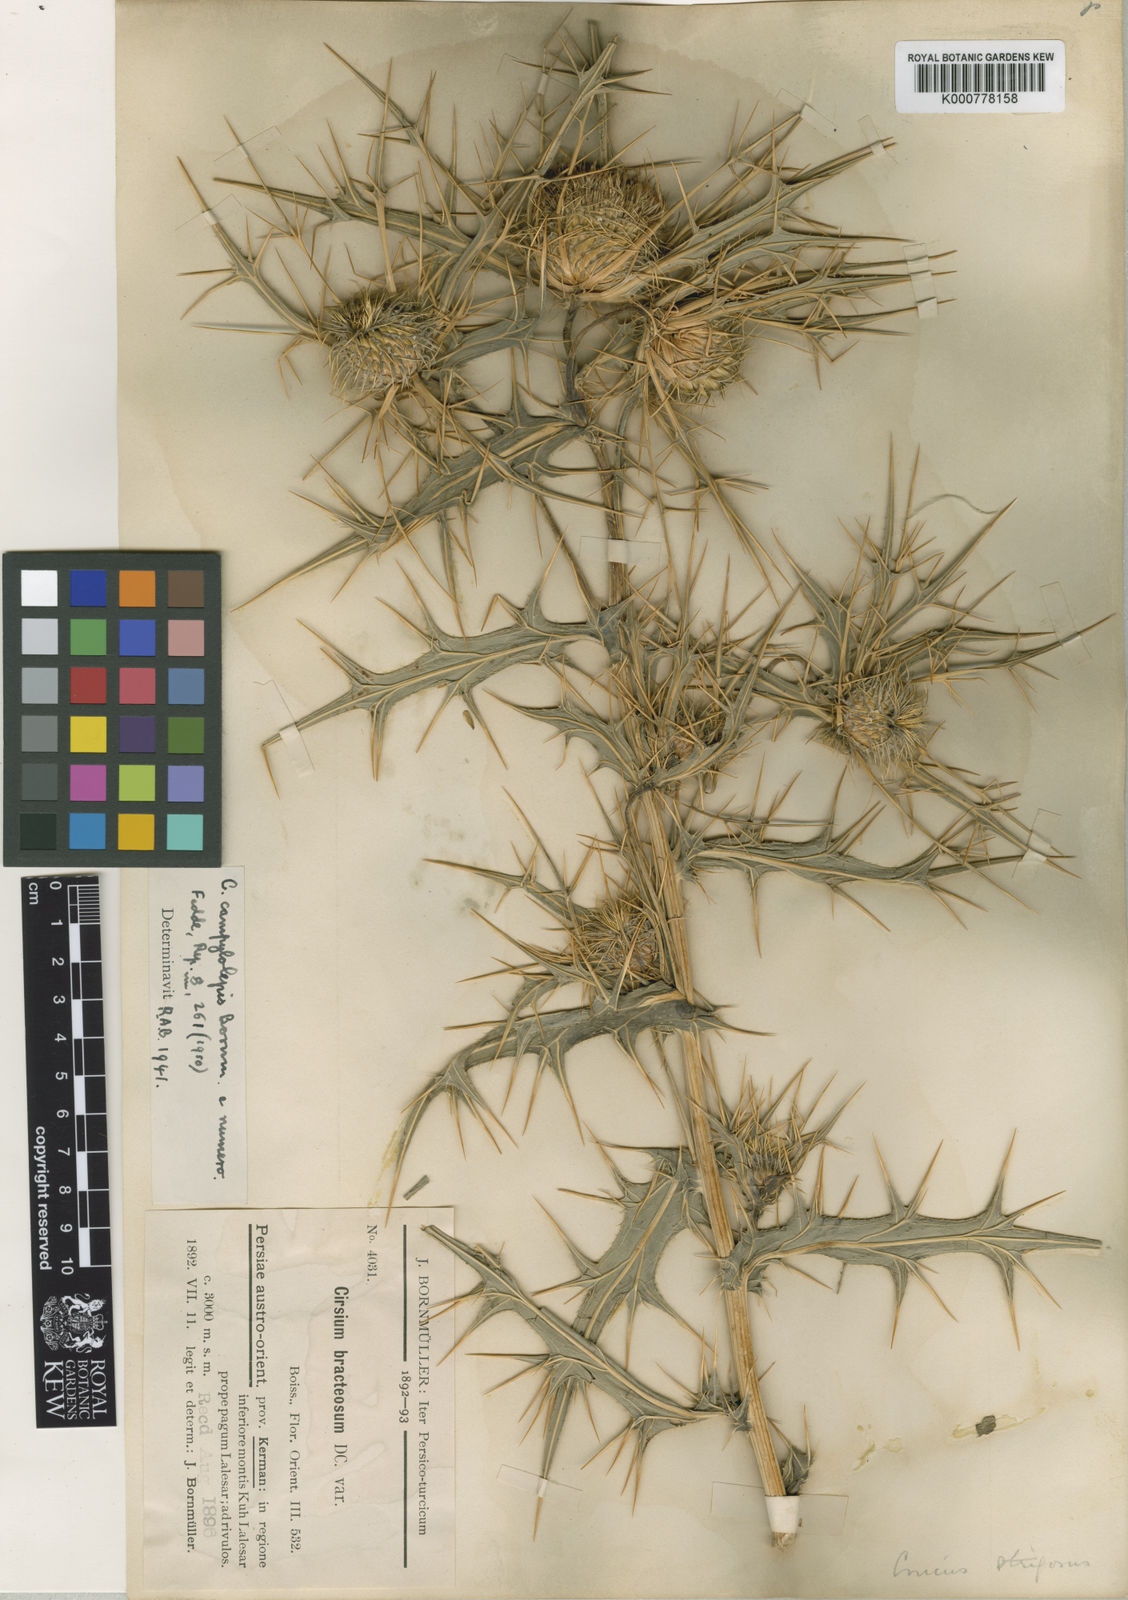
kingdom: Plantae
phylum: Tracheophyta
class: Magnoliopsida
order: Asterales
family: Asteraceae
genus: Lophiolepis
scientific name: Lophiolepis bracteosa
